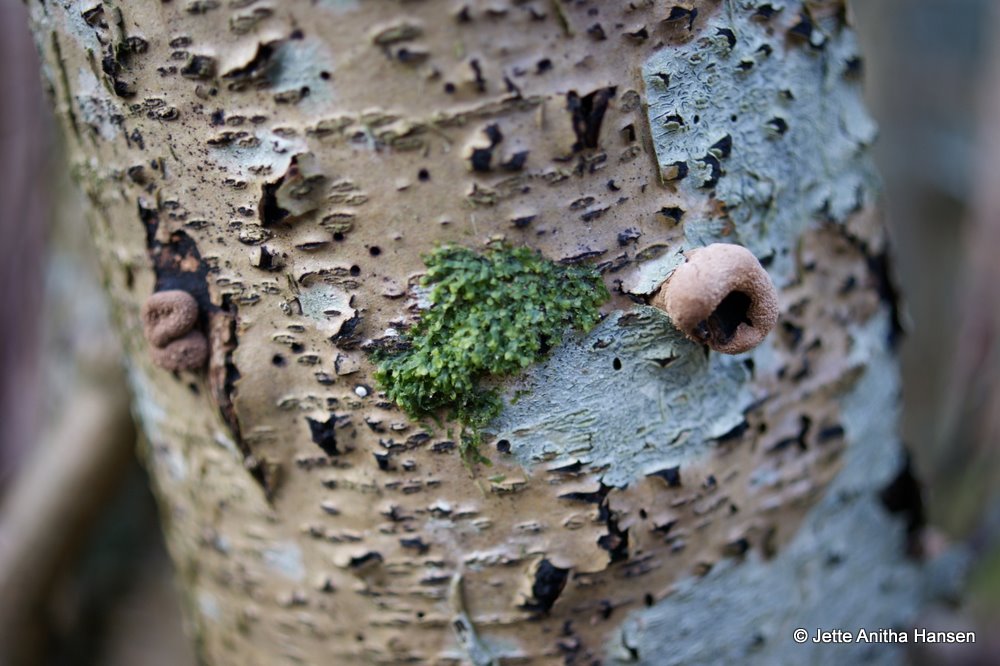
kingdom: Fungi
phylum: Ascomycota
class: Leotiomycetes
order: Helotiales
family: Cenangiaceae
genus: Encoelia
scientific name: Encoelia furfuracea
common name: hassel-læderskive
